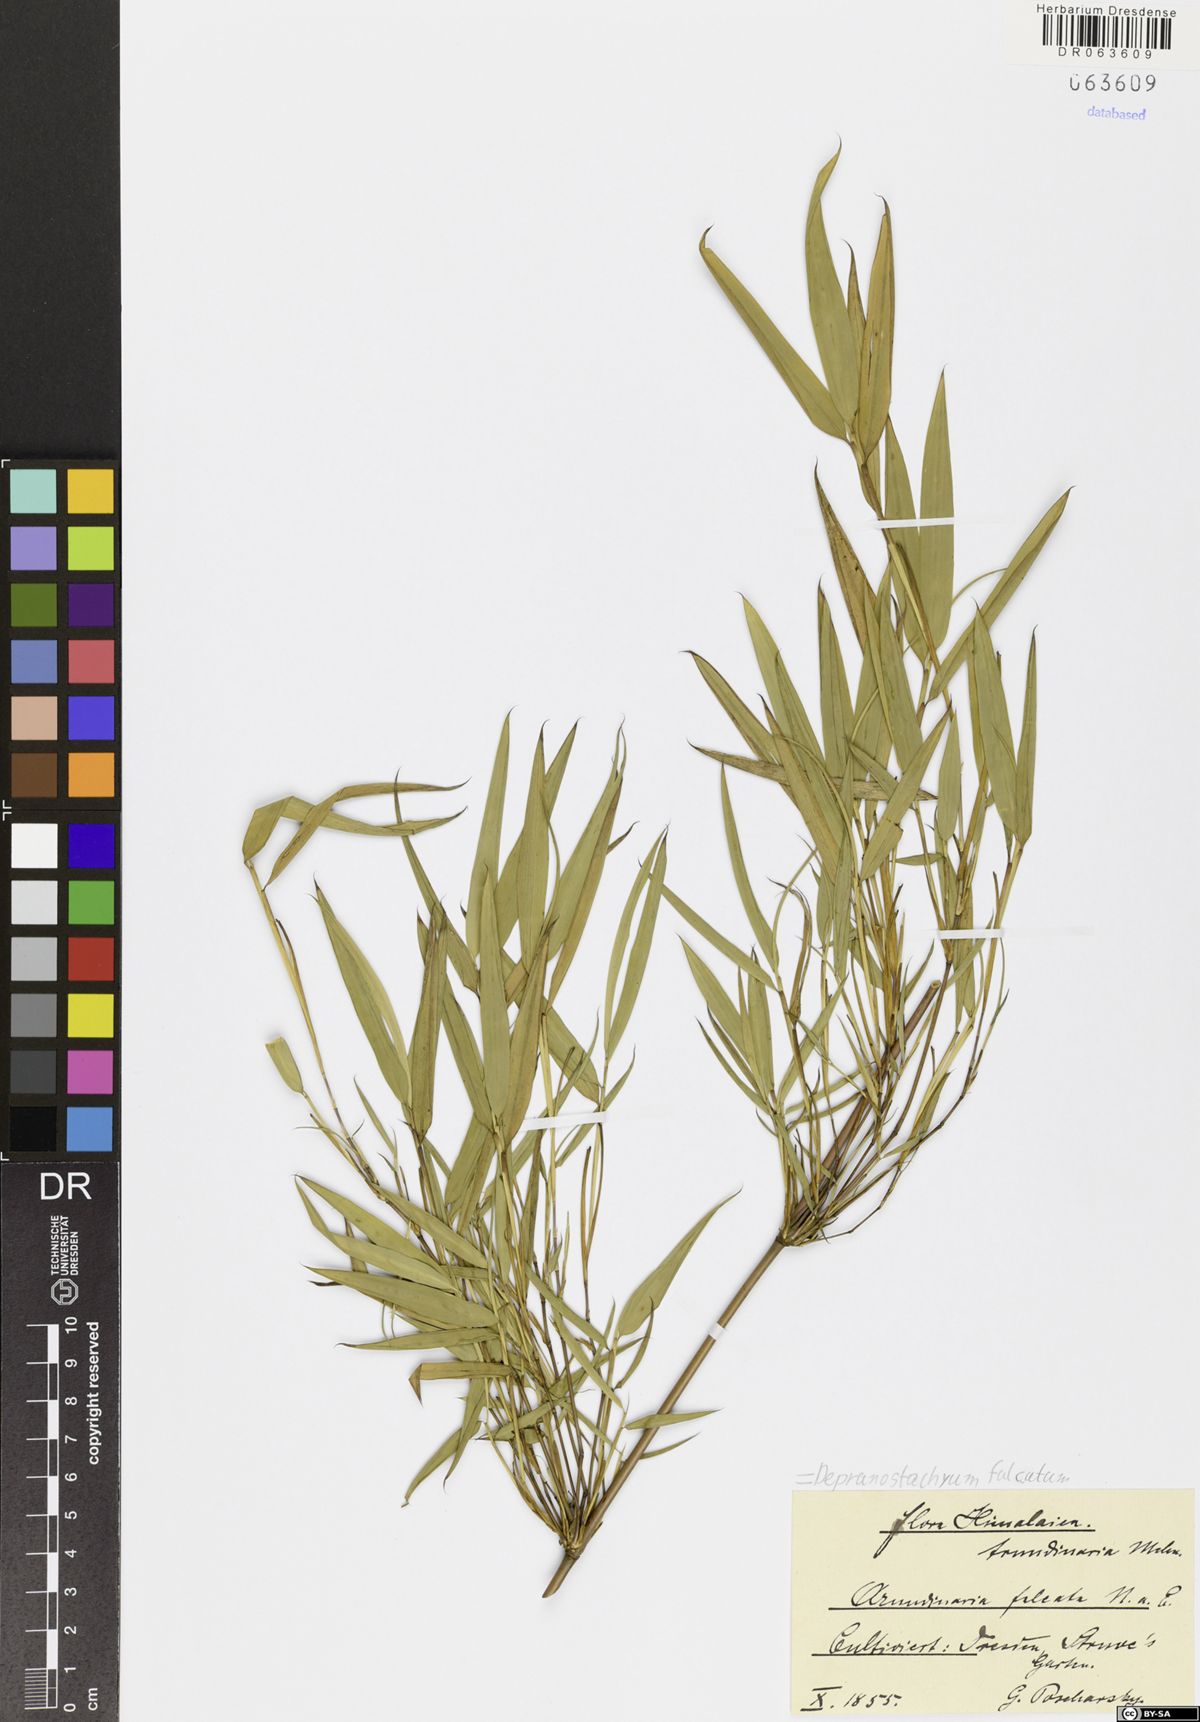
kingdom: Plantae
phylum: Tracheophyta
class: Liliopsida
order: Poales
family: Poaceae
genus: Drepanostachyum
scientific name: Drepanostachyum falcatum
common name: Himalayan bamboo
